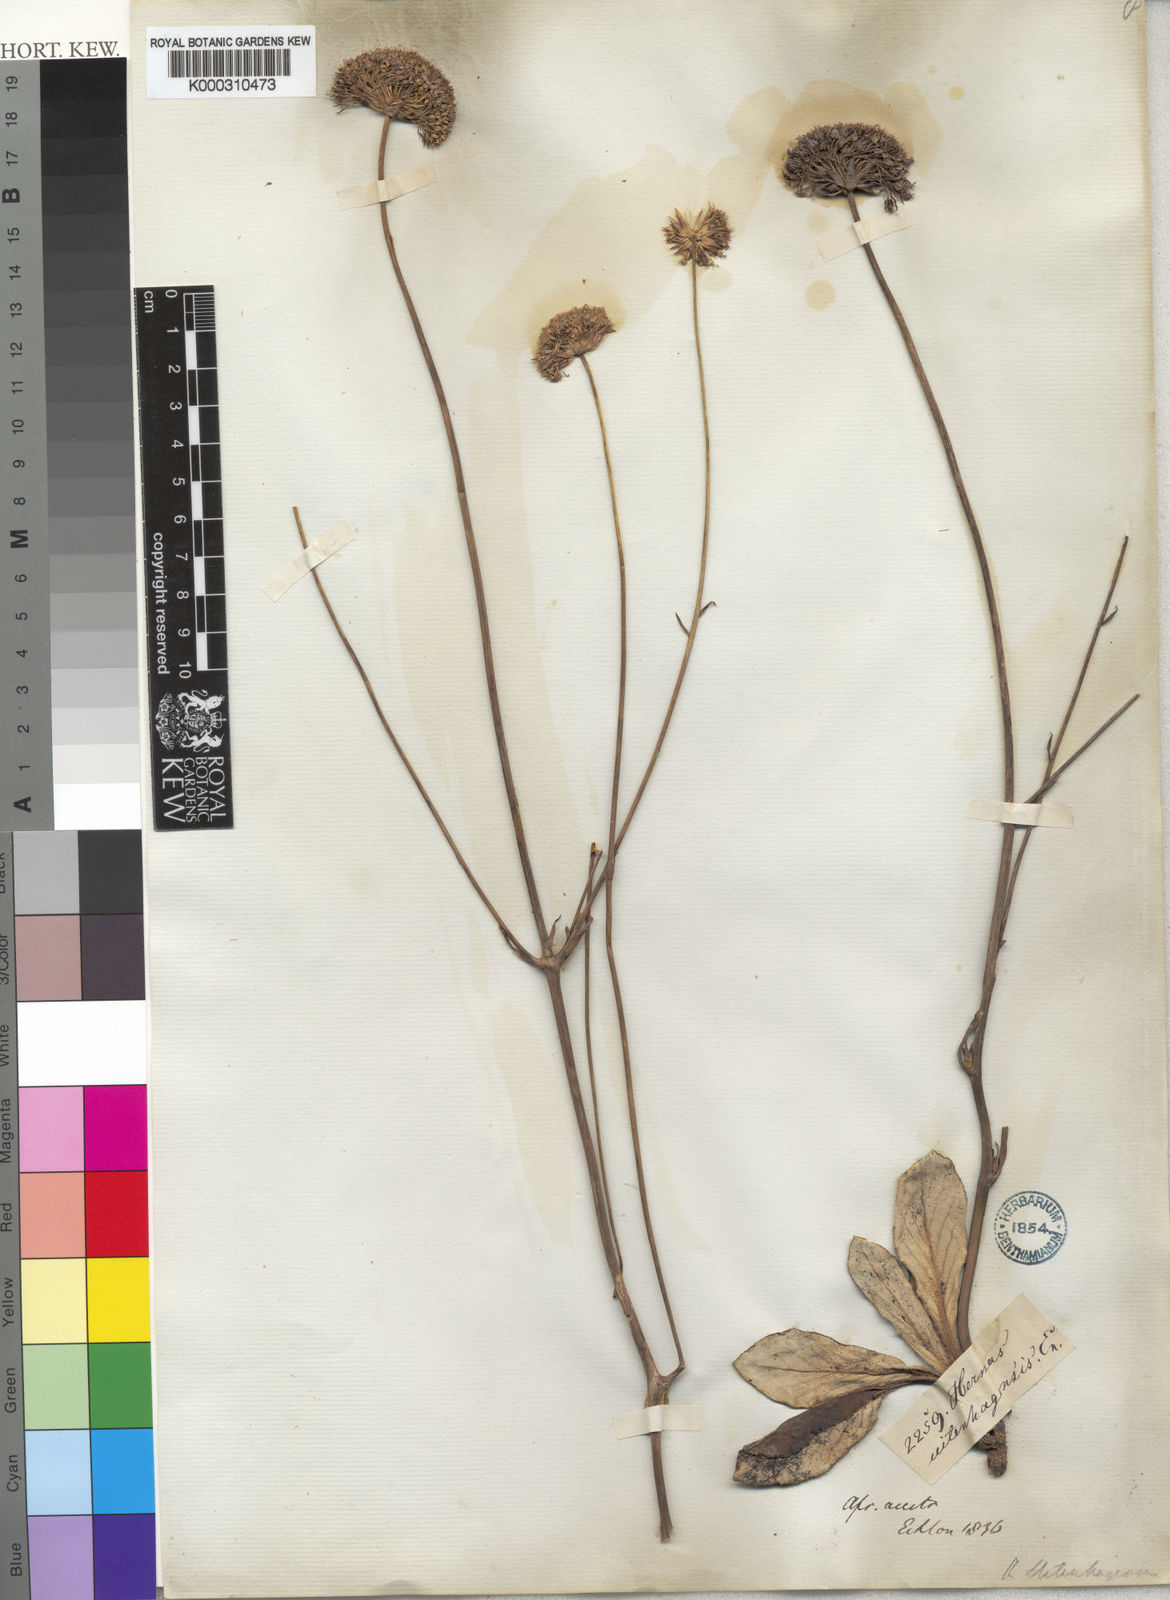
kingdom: Plantae
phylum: Tracheophyta
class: Magnoliopsida
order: Apiales
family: Apiaceae
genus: Hermas
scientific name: Hermas ciliata
